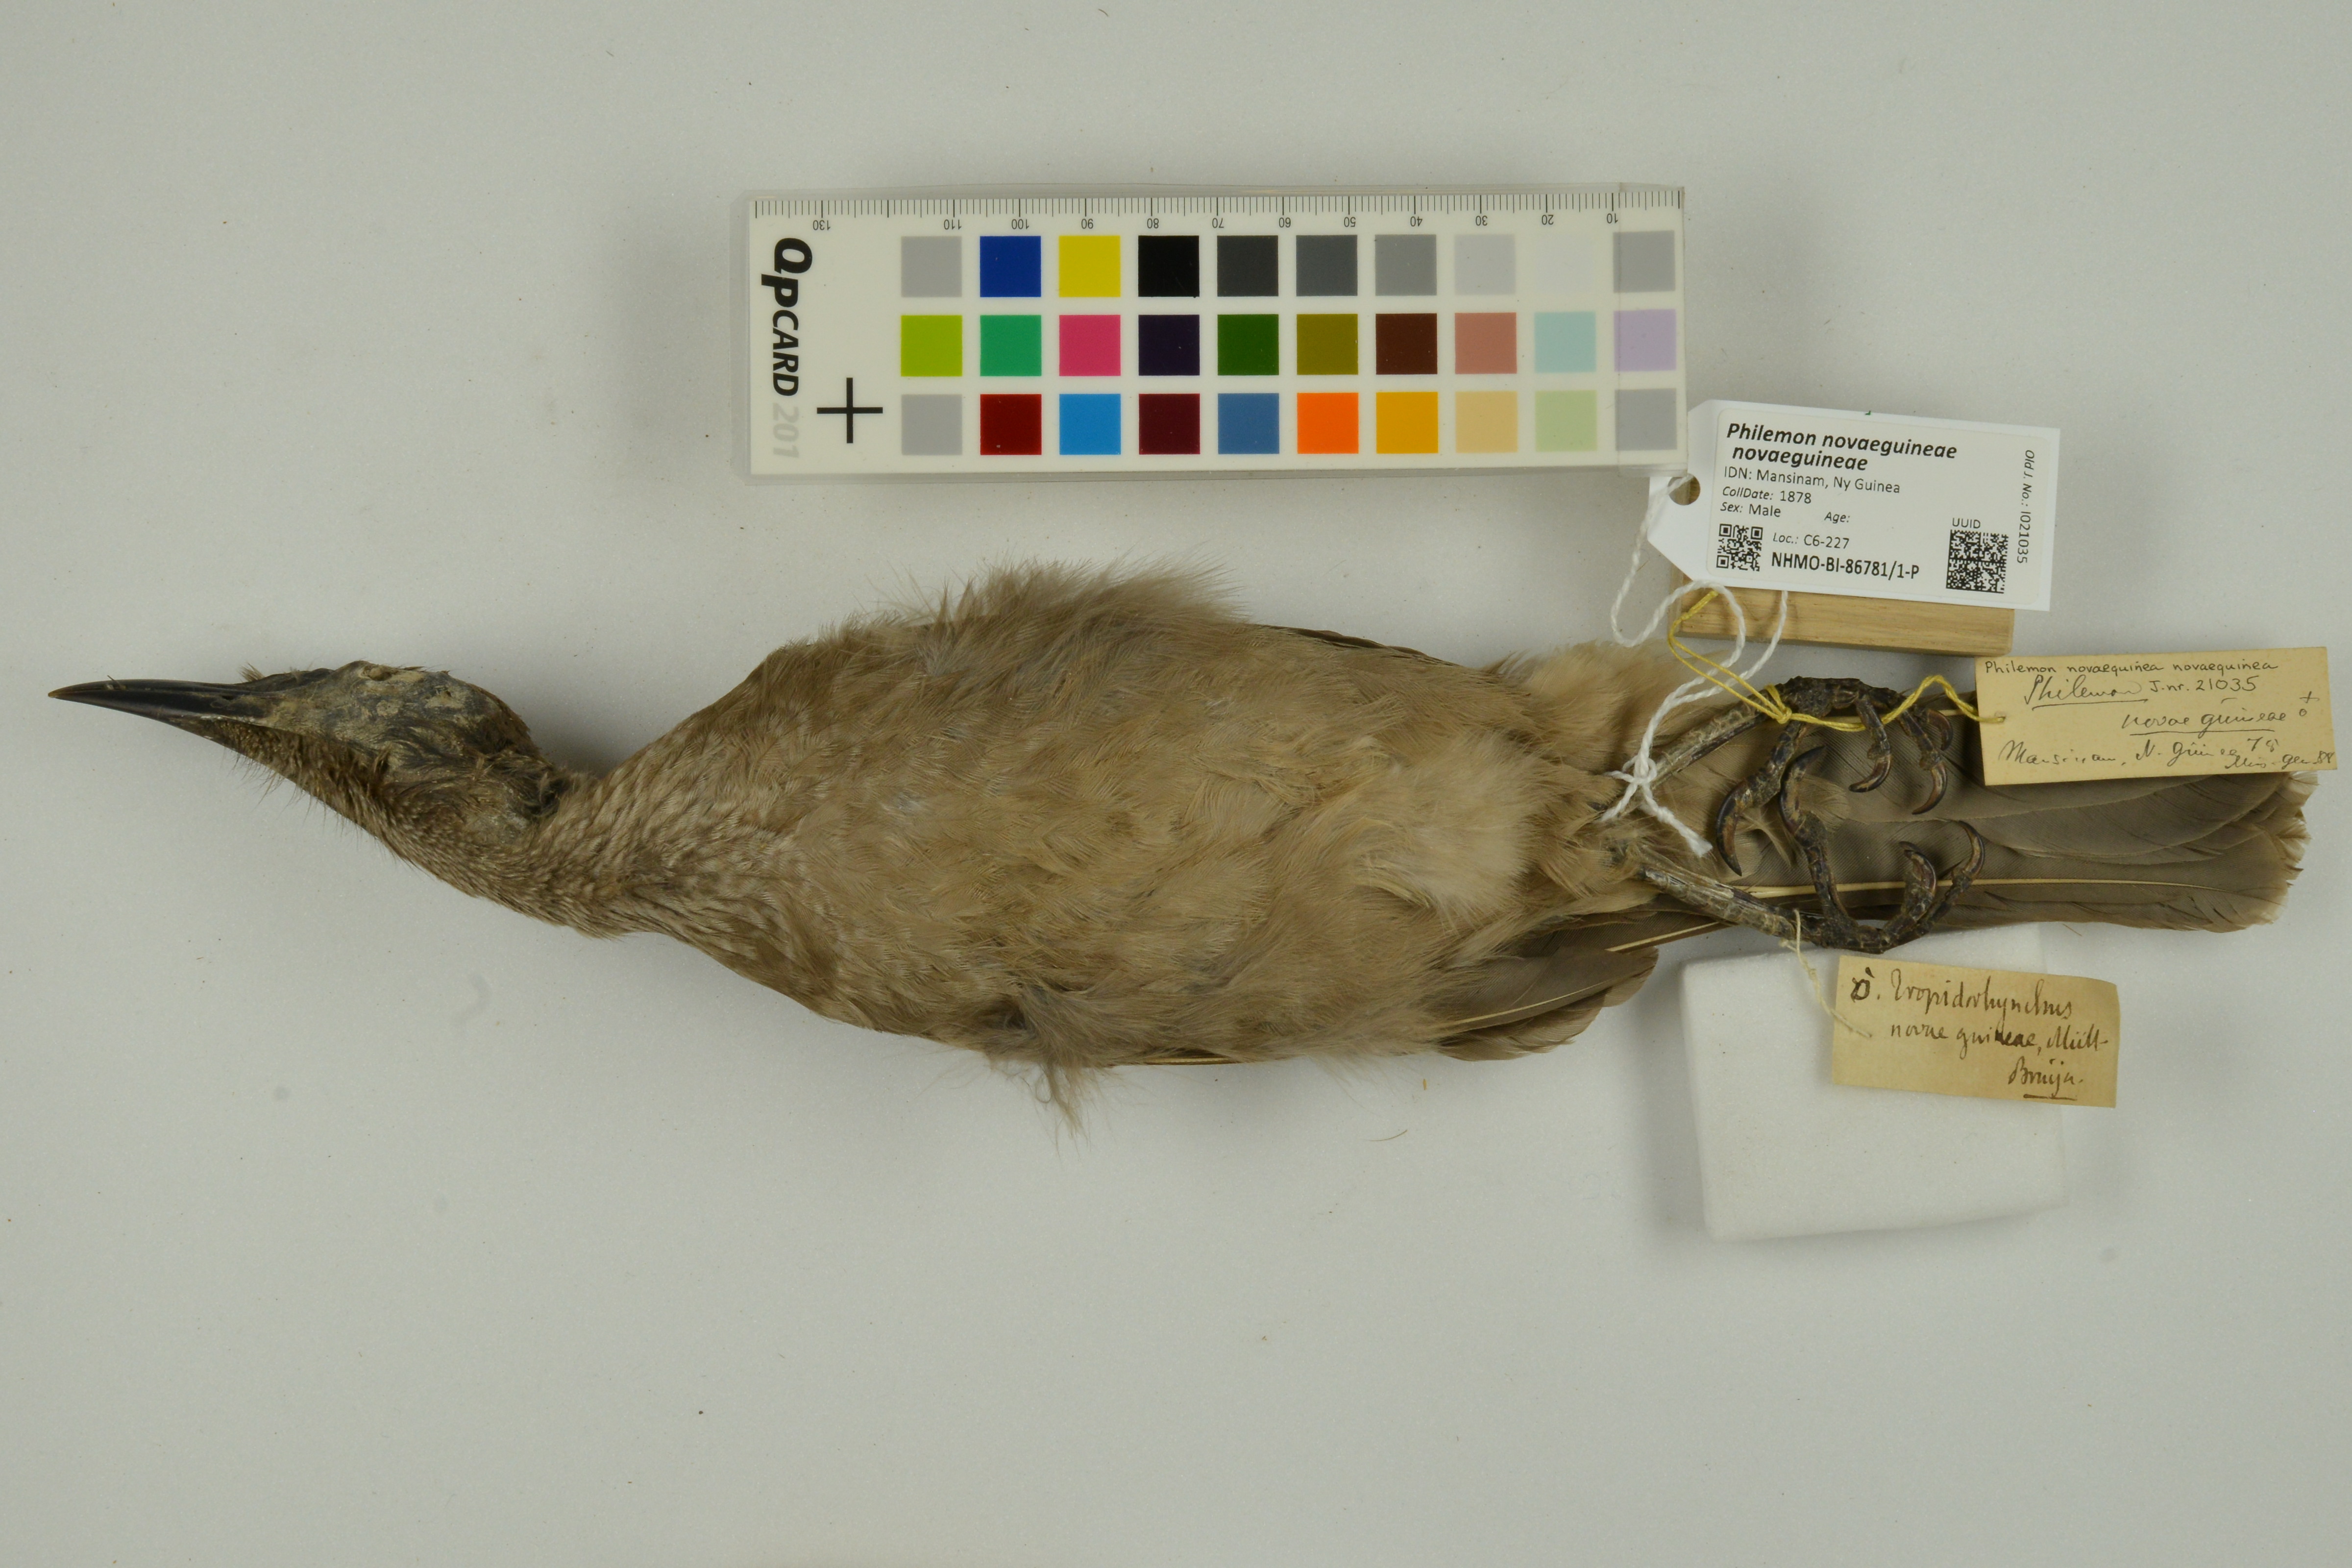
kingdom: Animalia
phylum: Chordata
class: Aves
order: Passeriformes
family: Meliphagidae
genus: Philemon
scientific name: Philemon novaeguineae
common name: New guinea friarbird
